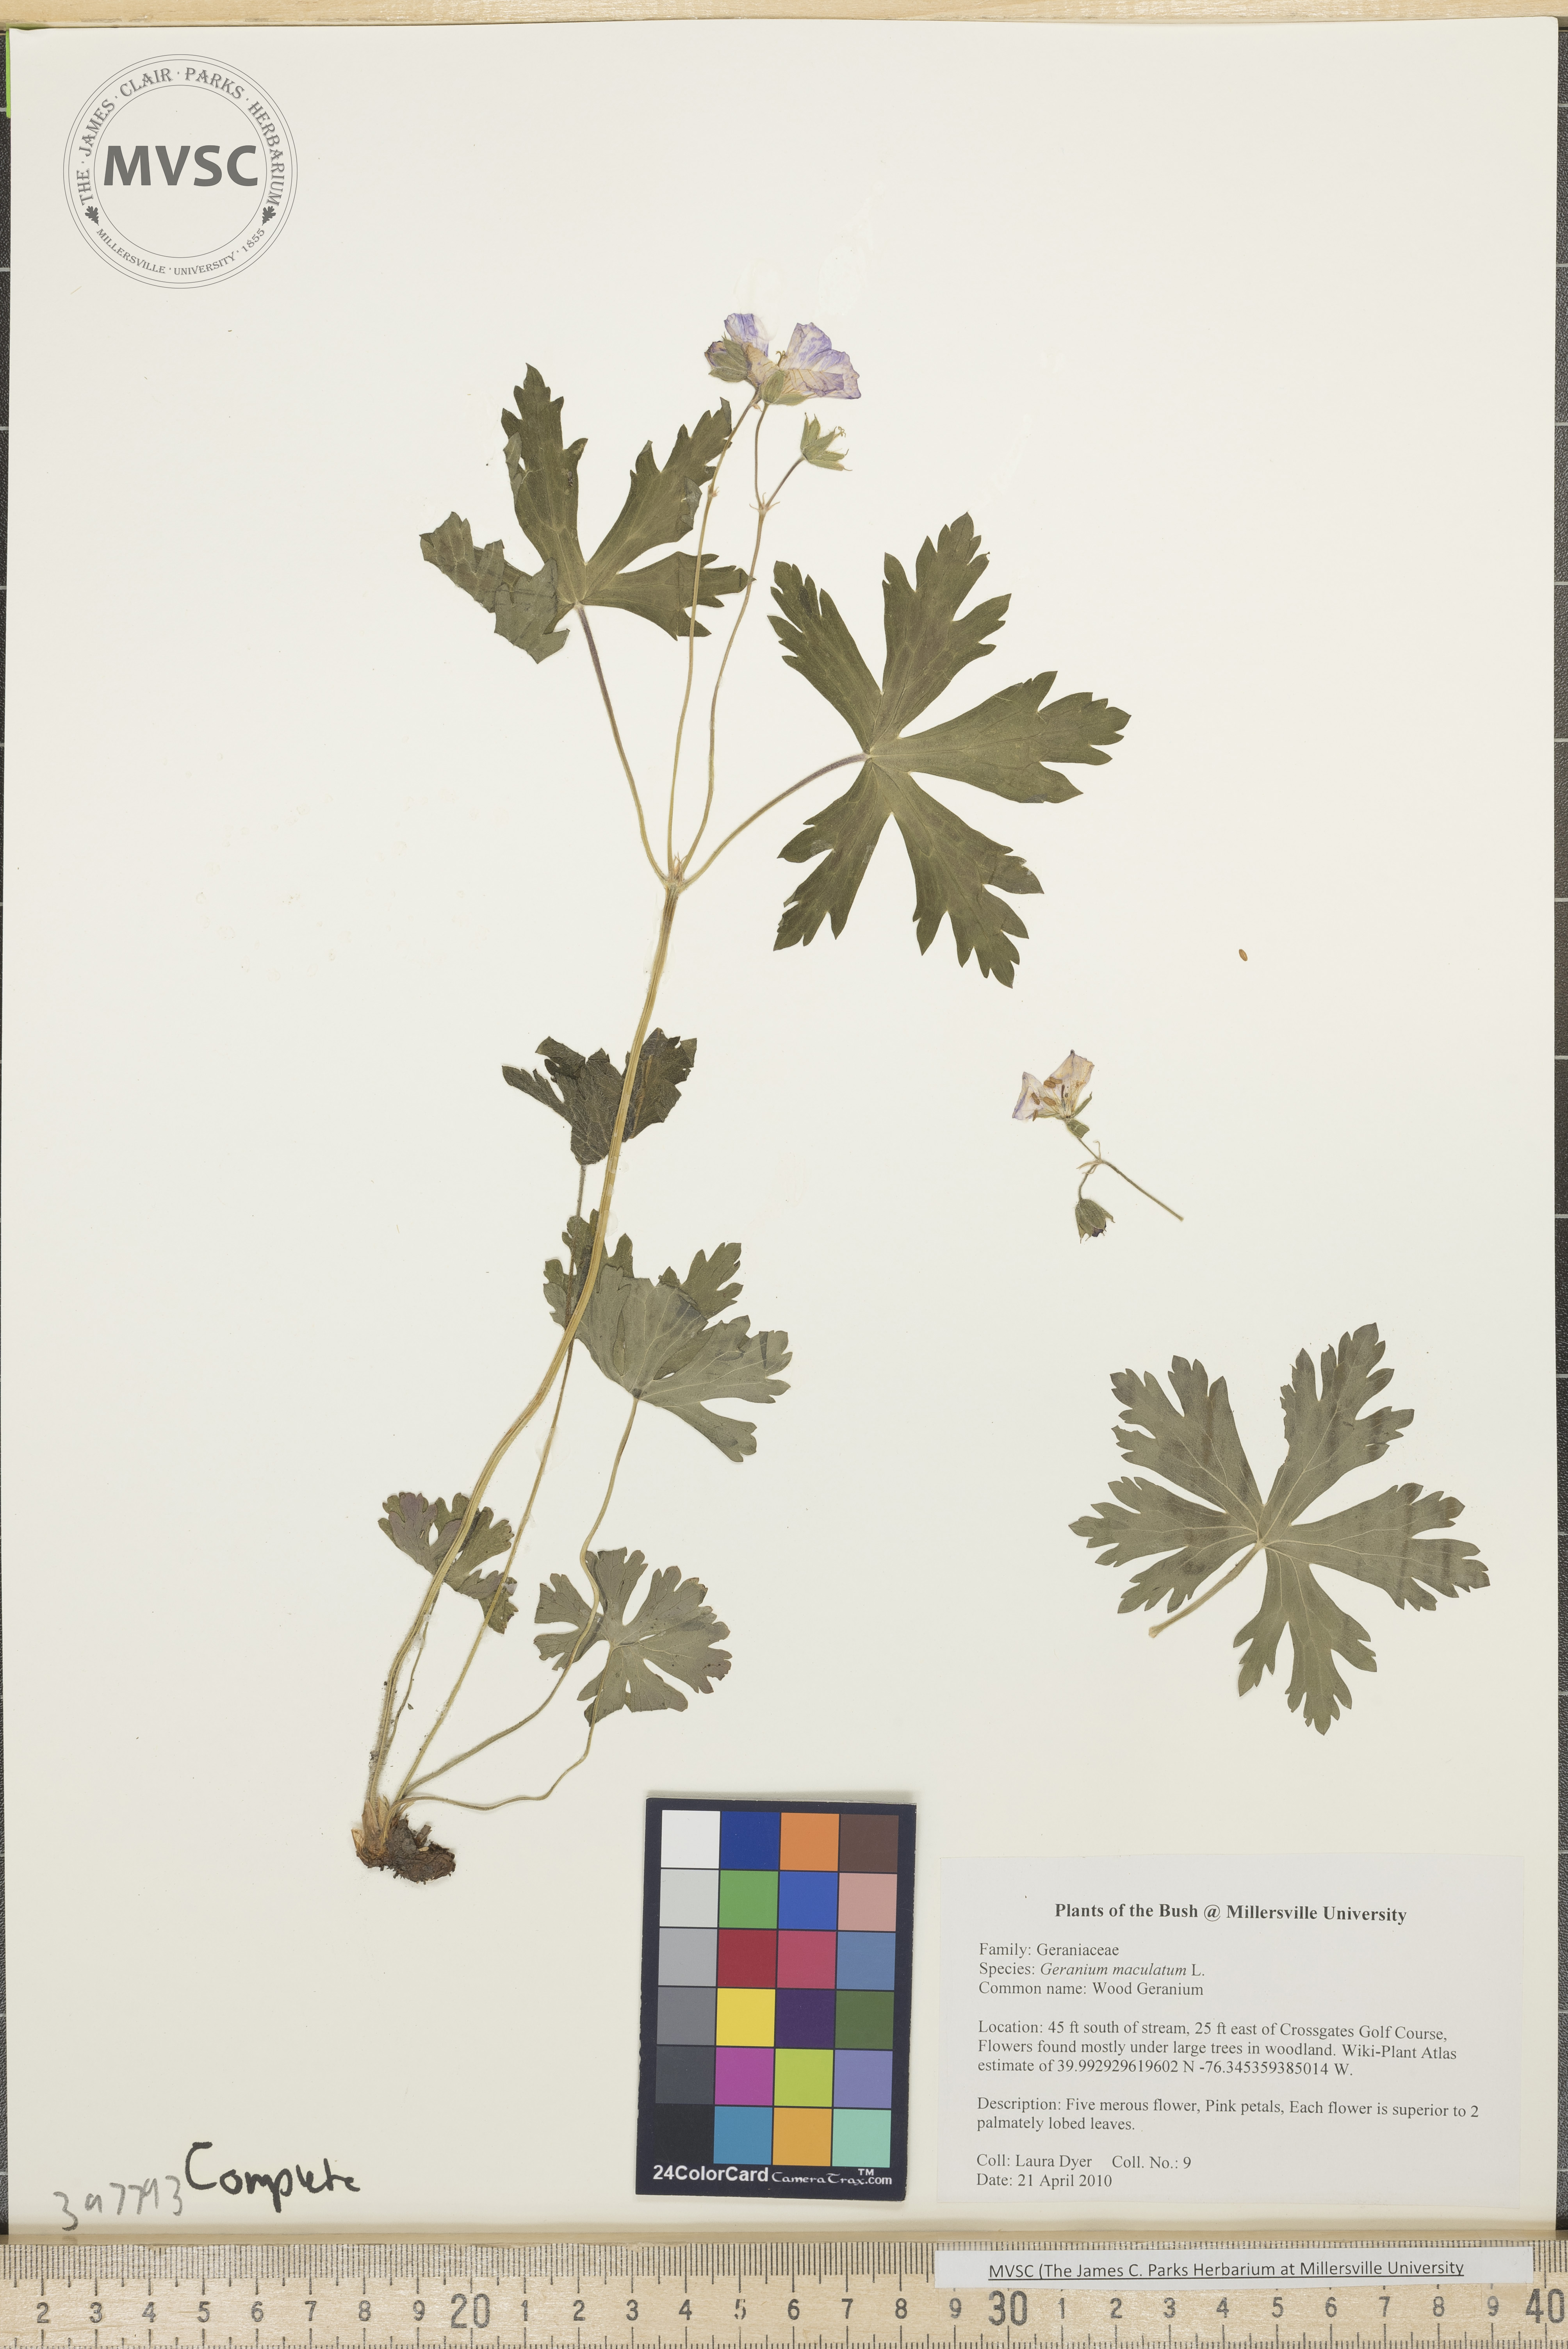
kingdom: Plantae
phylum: Tracheophyta
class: Magnoliopsida
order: Geraniales
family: Geraniaceae
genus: Geranium
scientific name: Geranium maculatum
